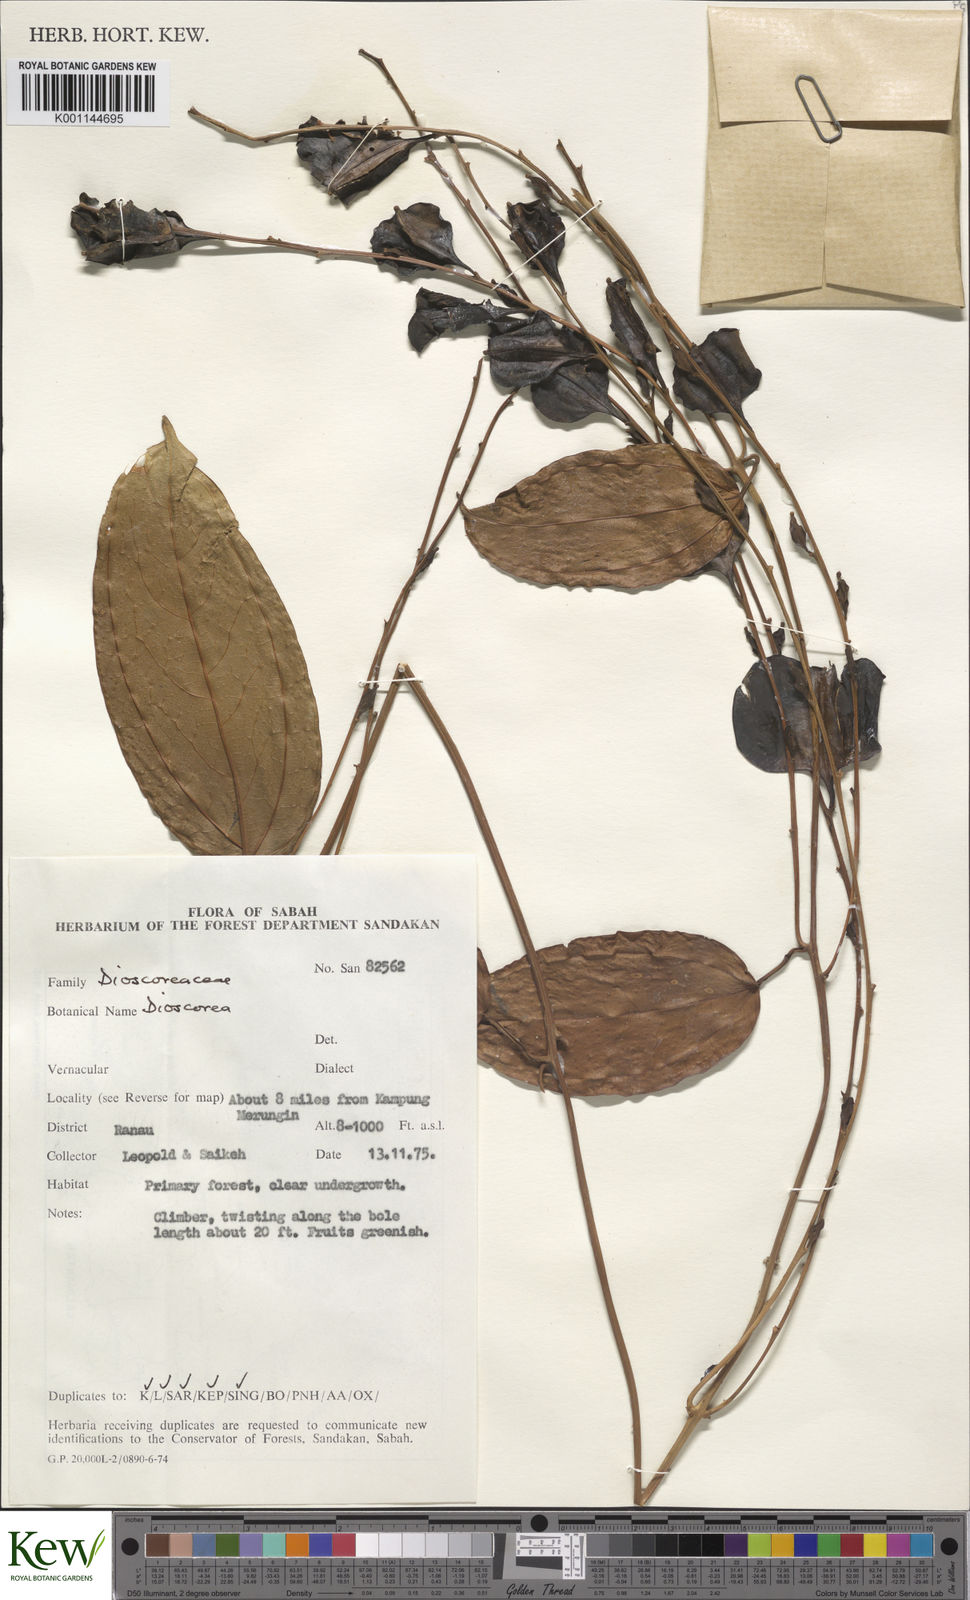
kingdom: Plantae
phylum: Tracheophyta
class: Liliopsida
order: Dioscoreales
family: Dioscoreaceae
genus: Dioscorea
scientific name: Dioscorea
